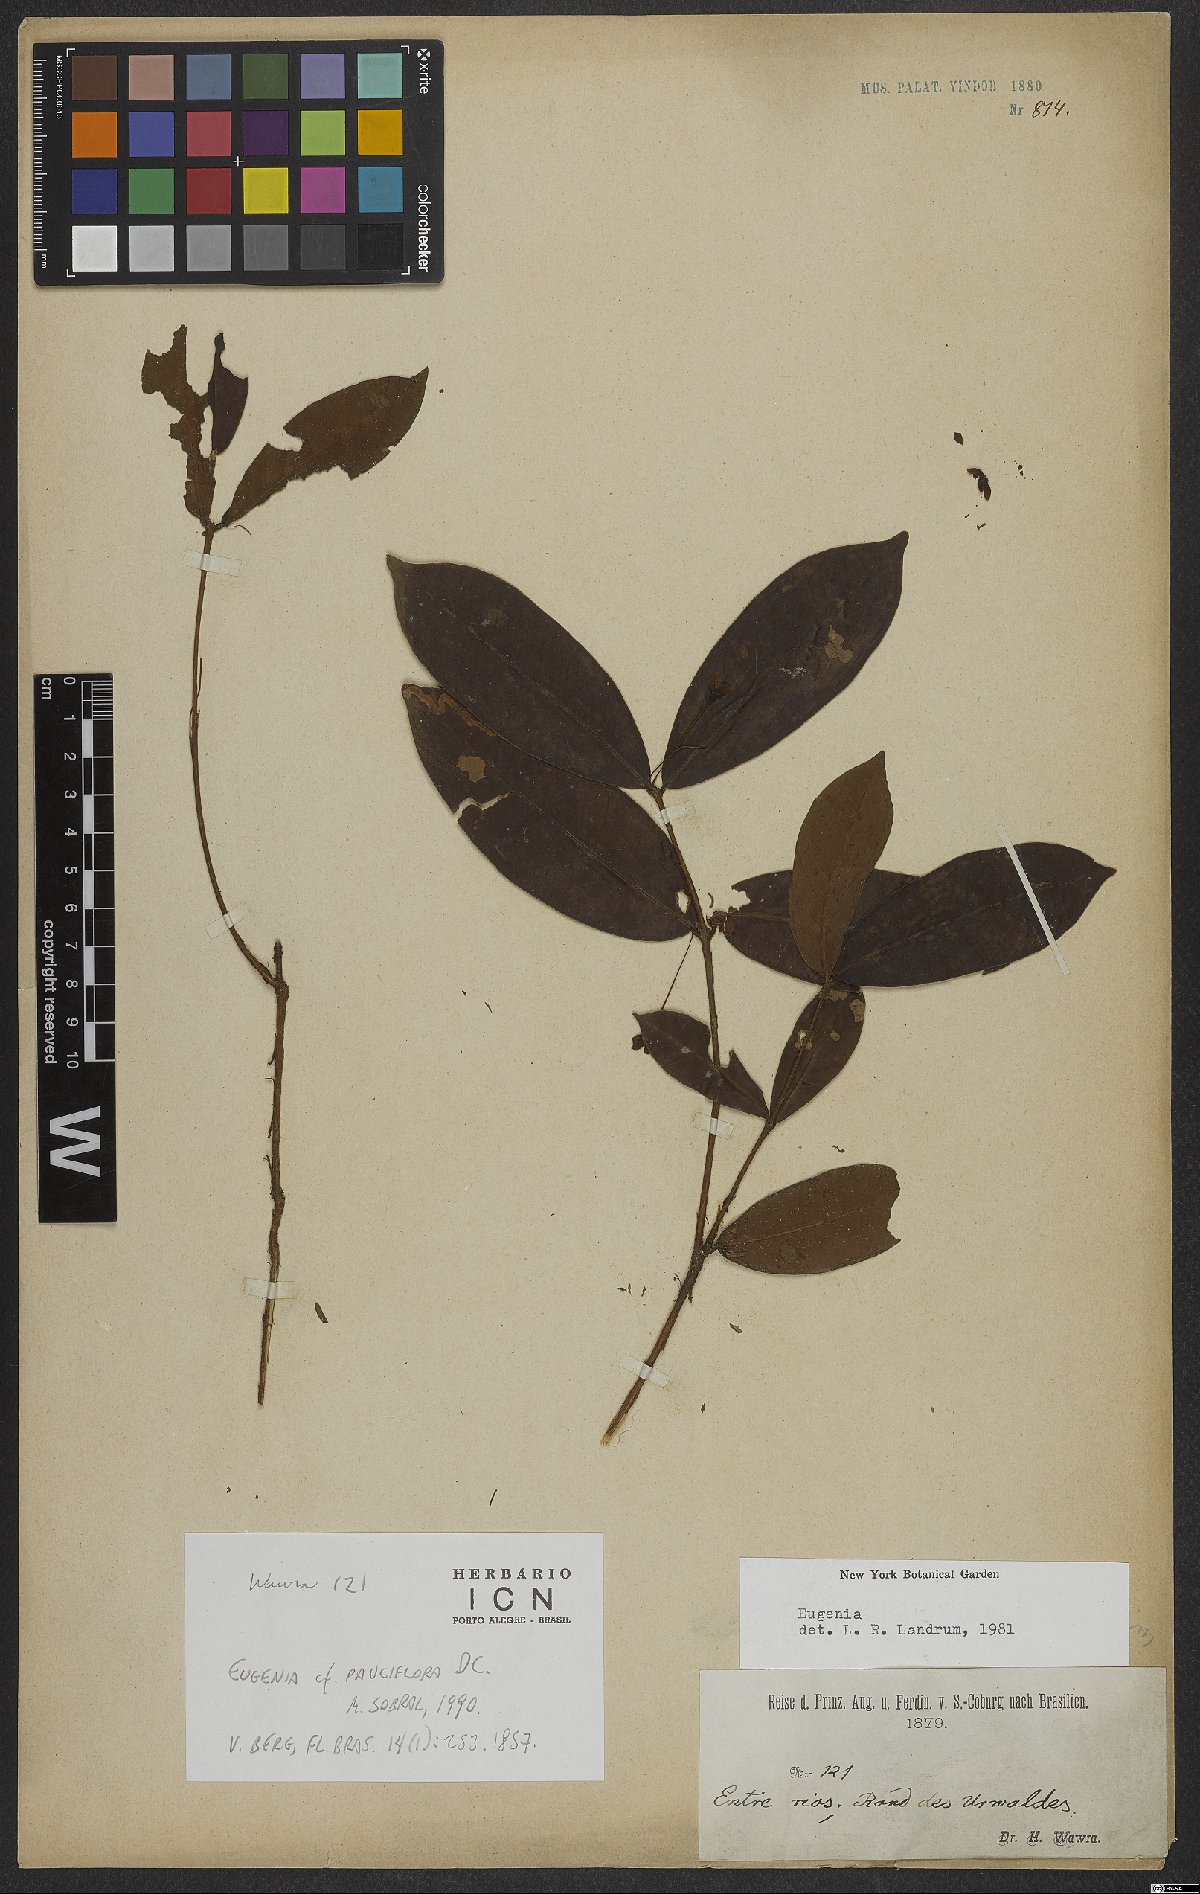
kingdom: Plantae
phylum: Tracheophyta
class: Magnoliopsida
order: Myrtales
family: Myrtaceae
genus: Eugenia
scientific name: Eugenia pauciflora
